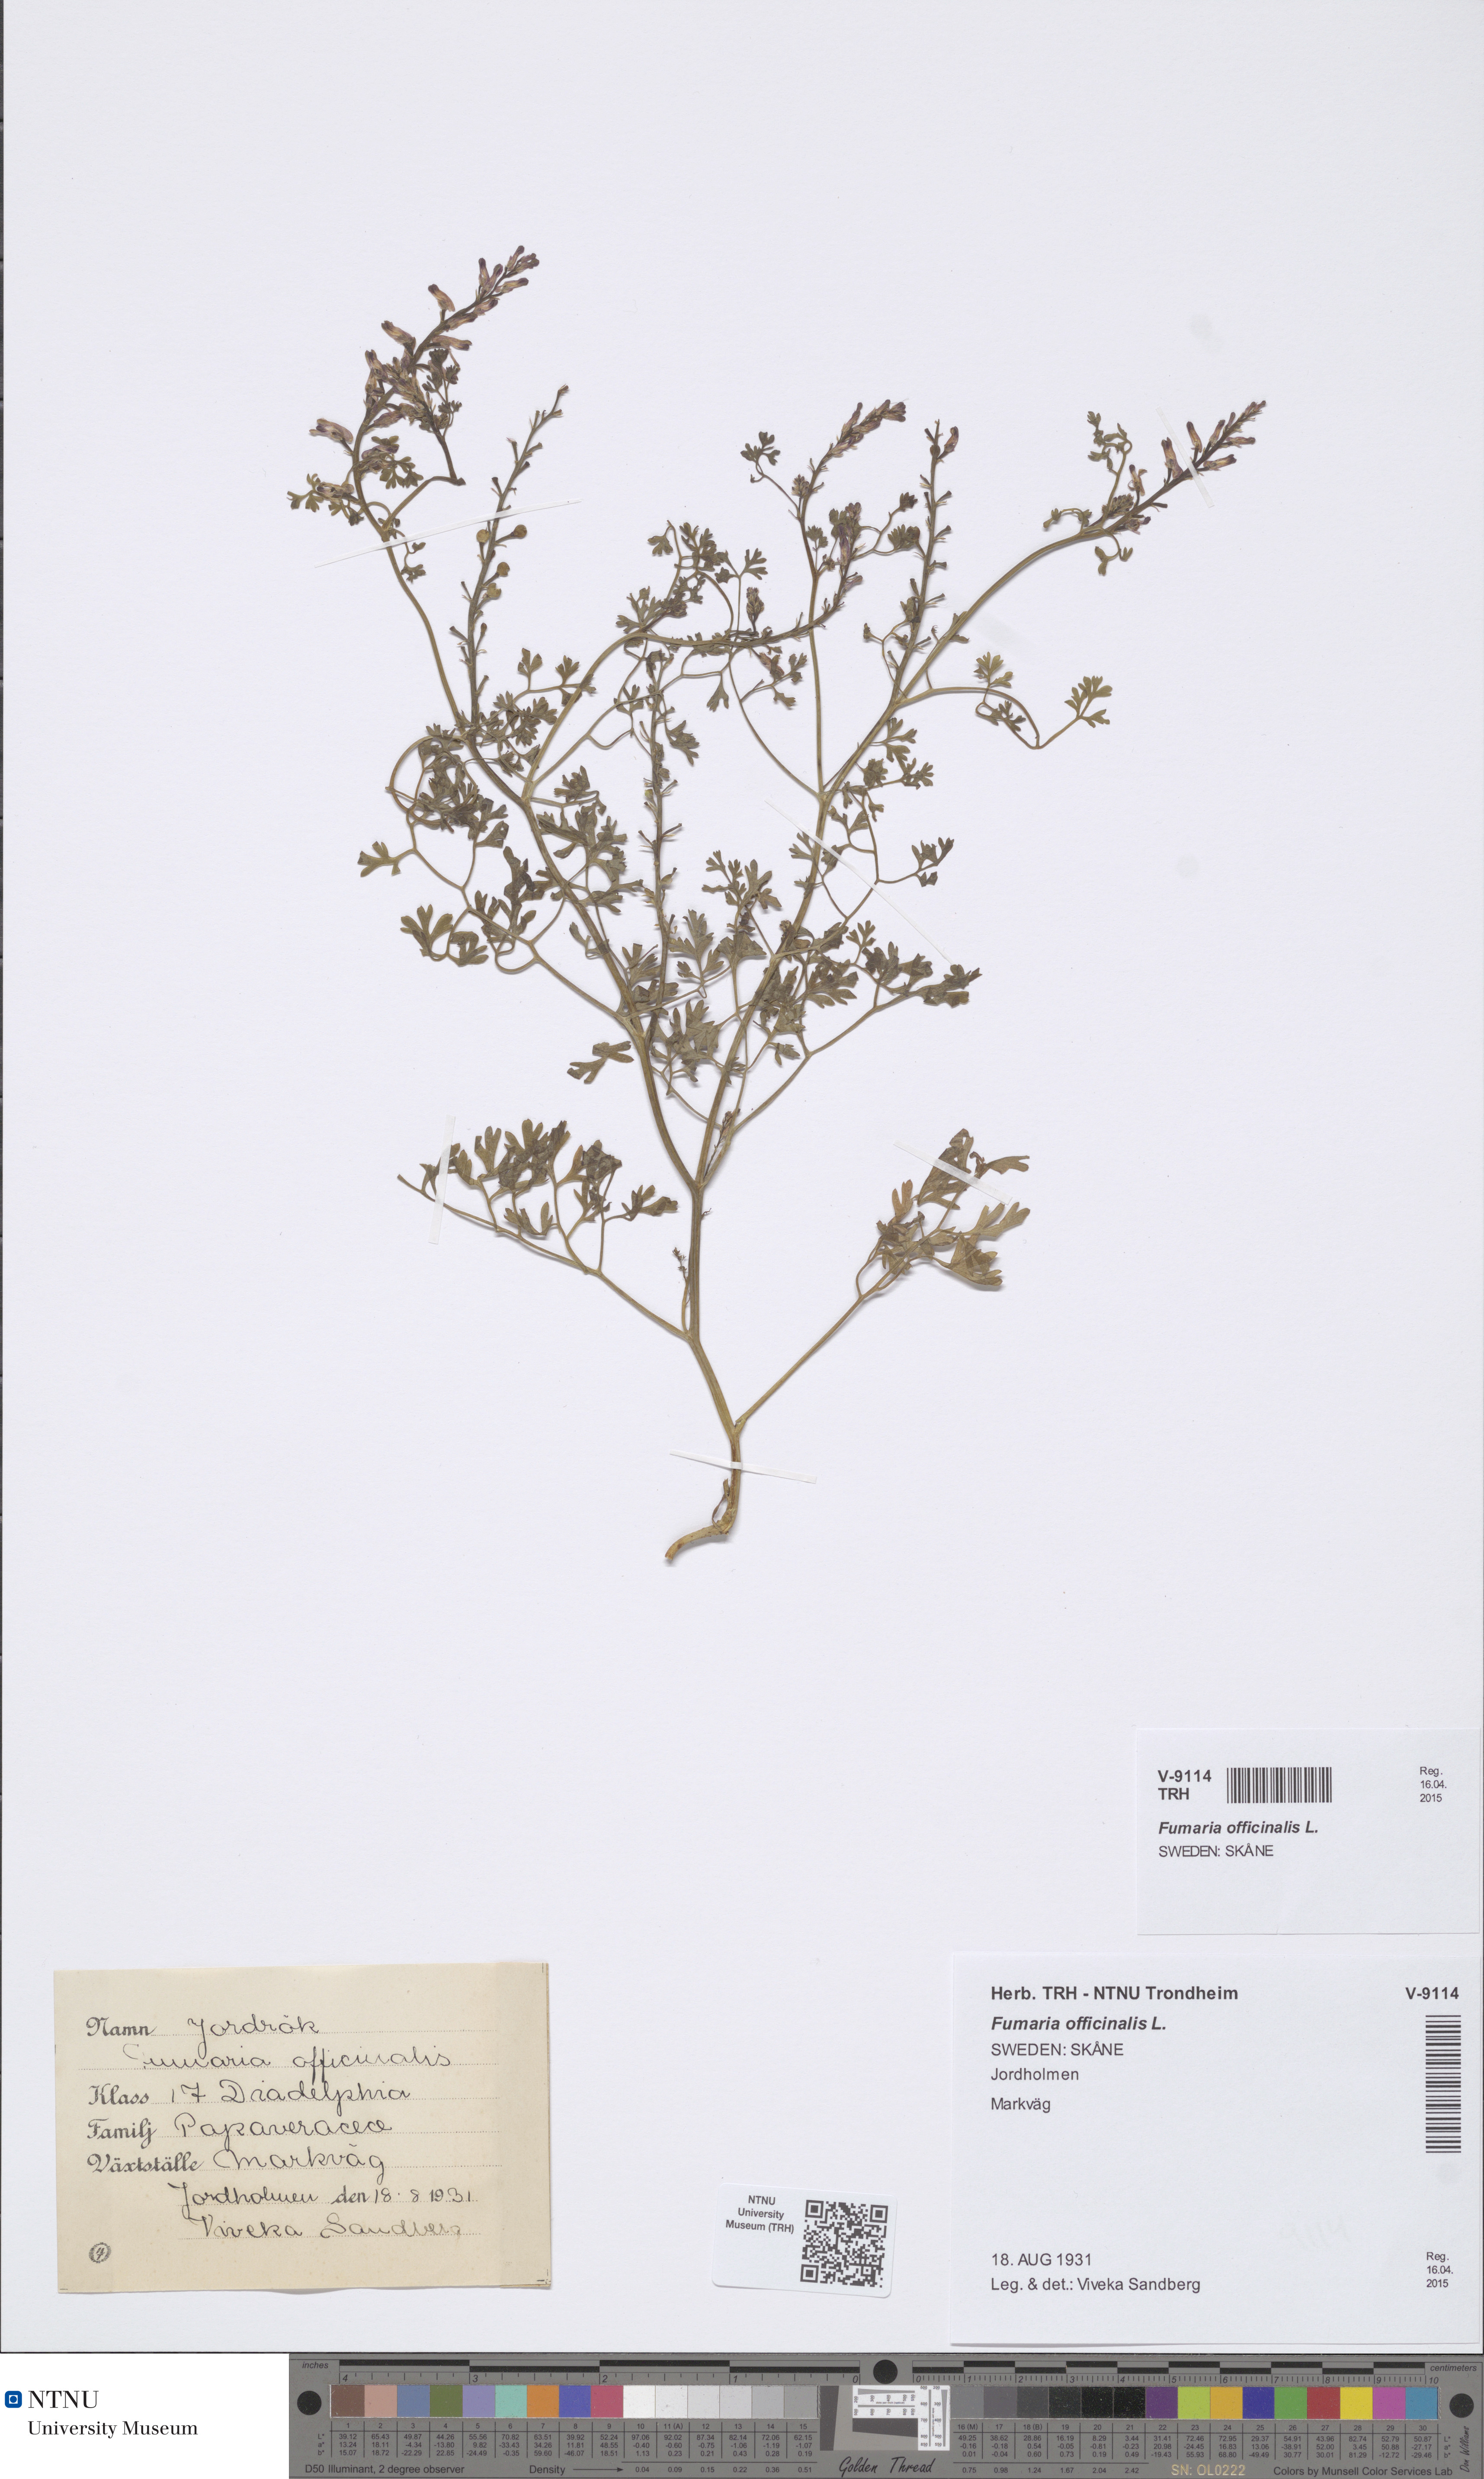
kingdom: Plantae
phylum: Tracheophyta
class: Magnoliopsida
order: Ranunculales
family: Papaveraceae
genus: Fumaria
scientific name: Fumaria officinalis
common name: Common fumitory
